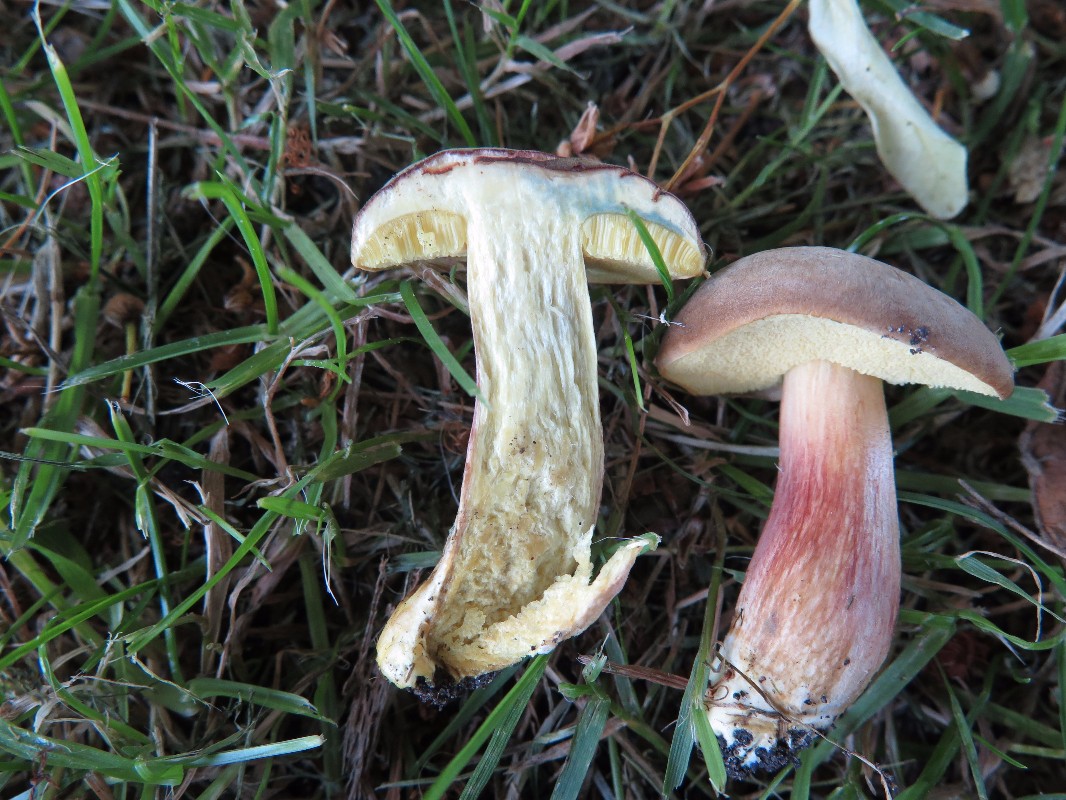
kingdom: Fungi
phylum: Basidiomycota
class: Agaricomycetes
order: Boletales
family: Boletaceae
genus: Hortiboletus
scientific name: Hortiboletus bubalinus
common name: aurora-rørhat
